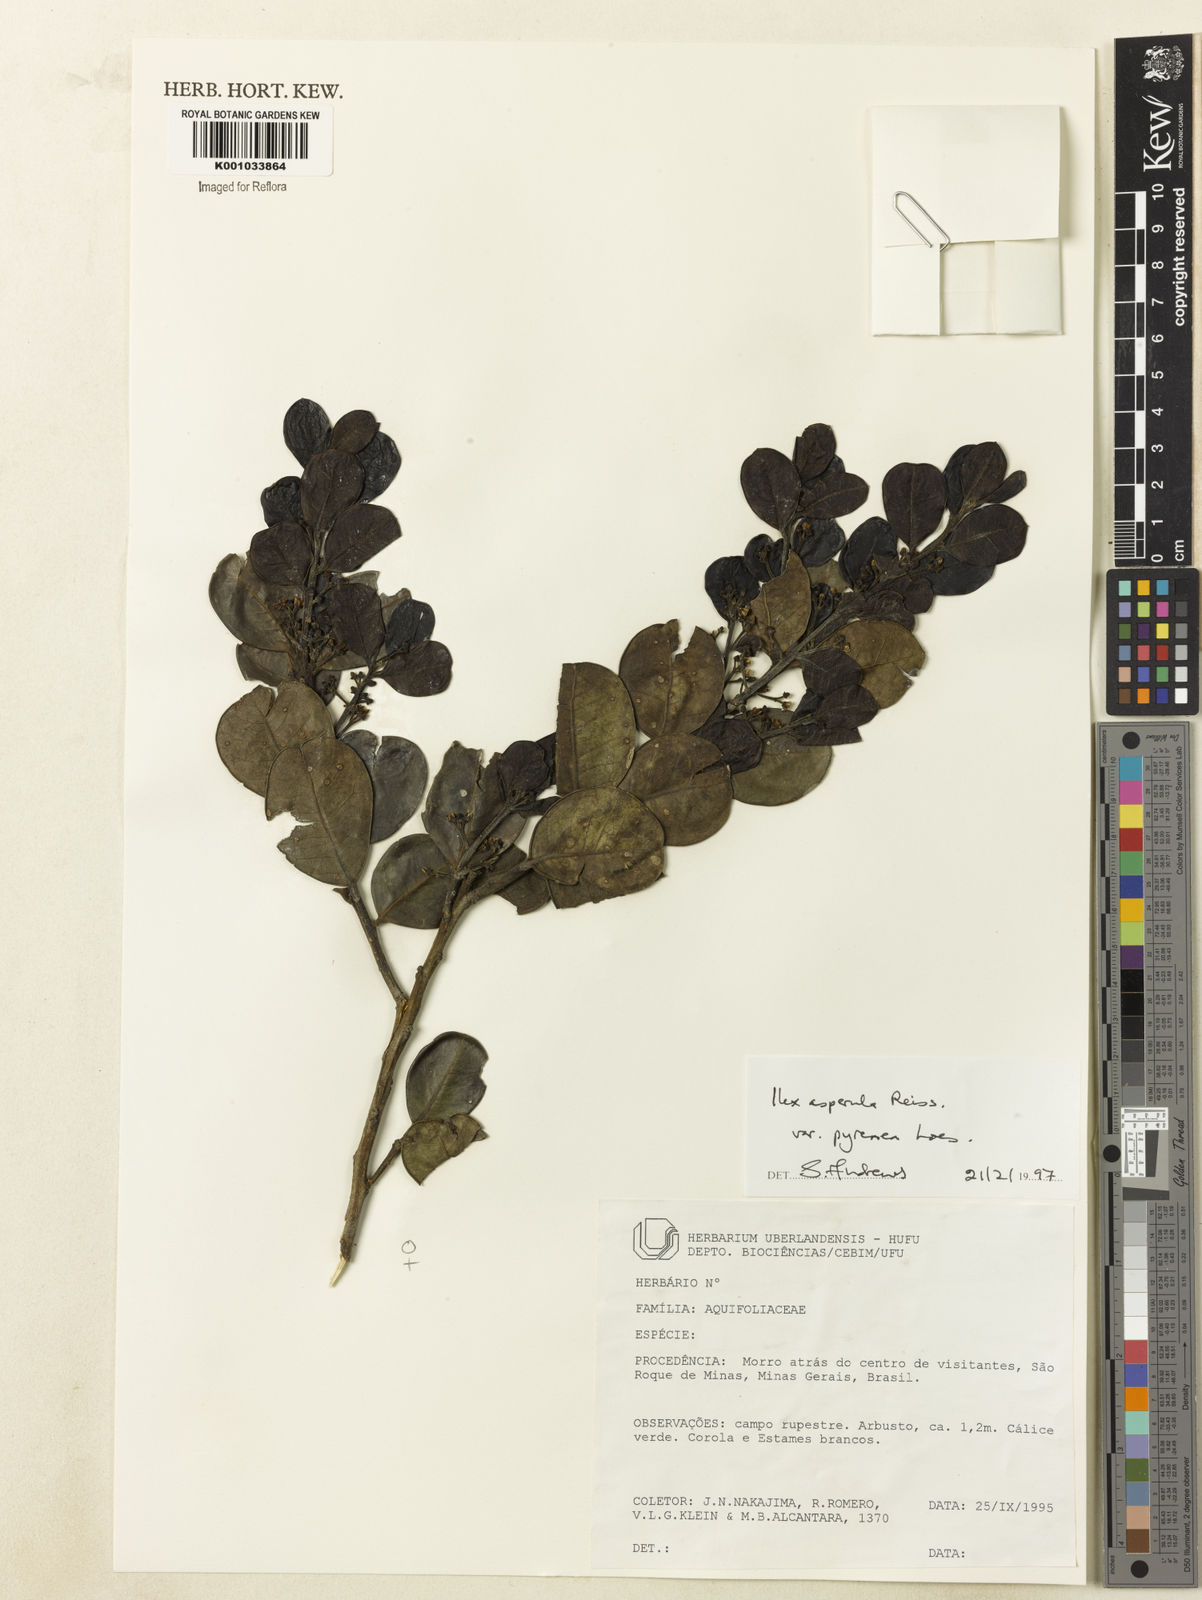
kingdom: Plantae
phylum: Tracheophyta
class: Magnoliopsida
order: Aquifoliales
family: Aquifoliaceae
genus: Ilex
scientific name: Ilex asperula
